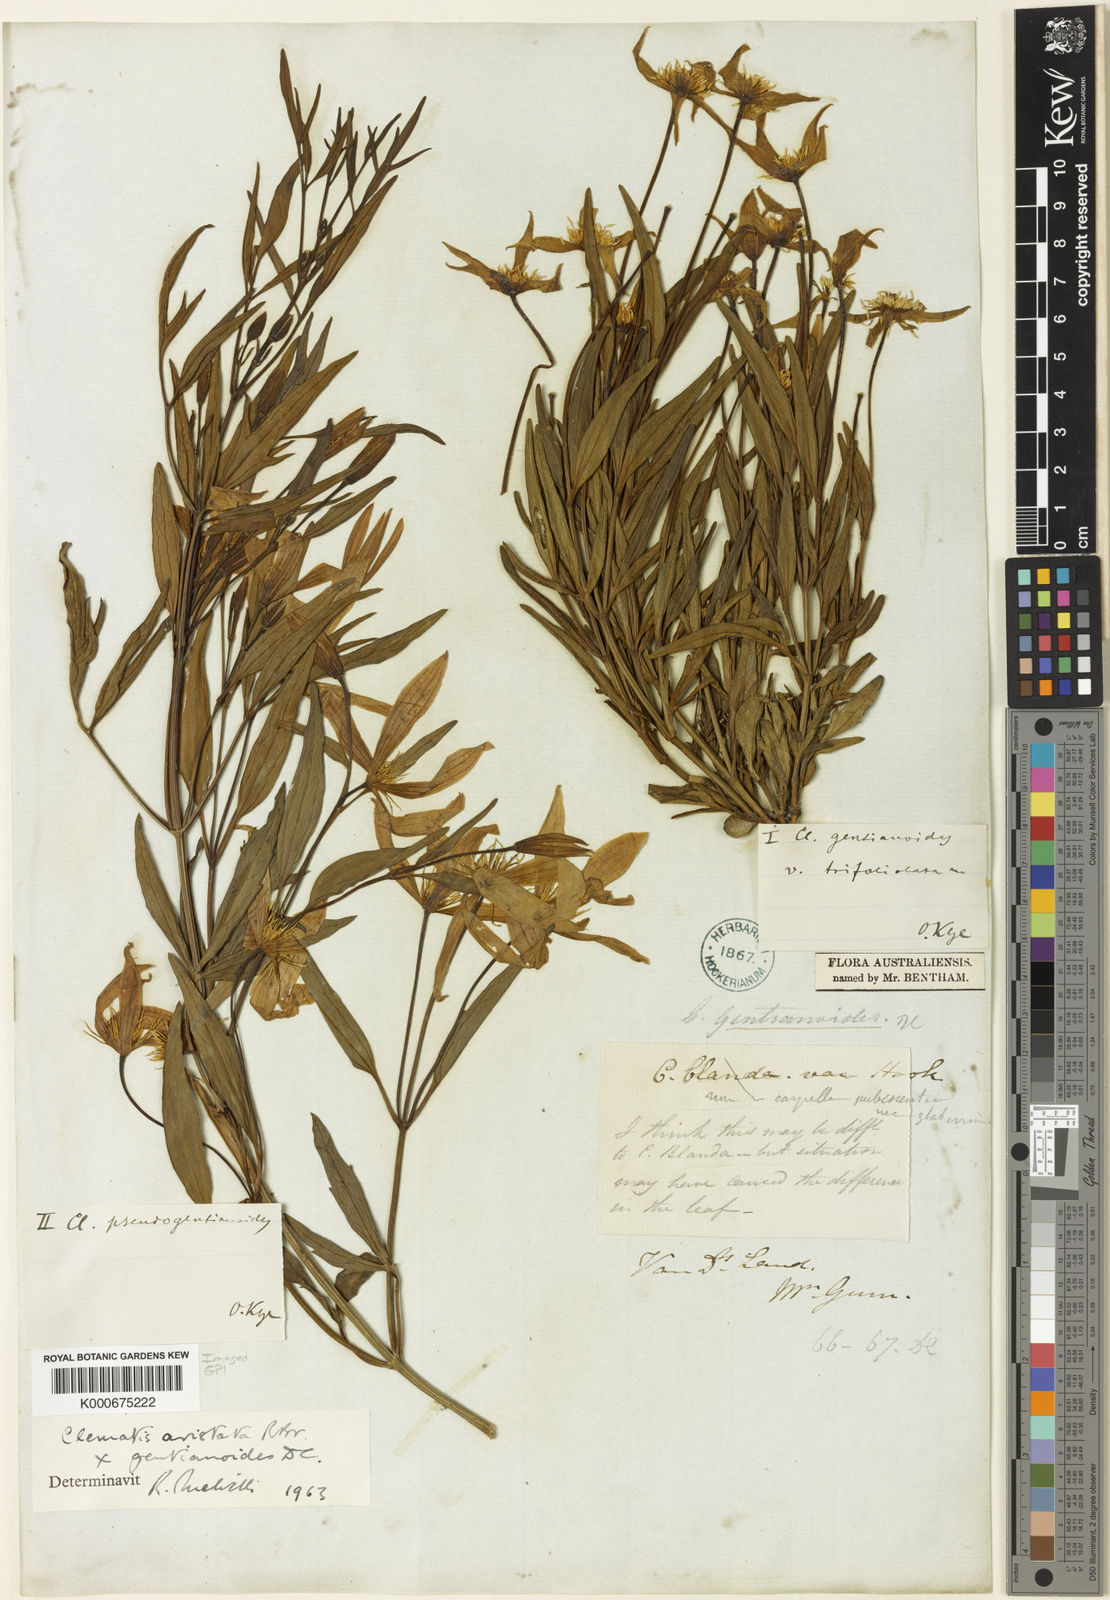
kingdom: Plantae
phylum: Tracheophyta
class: Magnoliopsida
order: Ranunculales
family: Ranunculaceae
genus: Clematis
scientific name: Clematis gentianoides
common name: Bushy clematis
